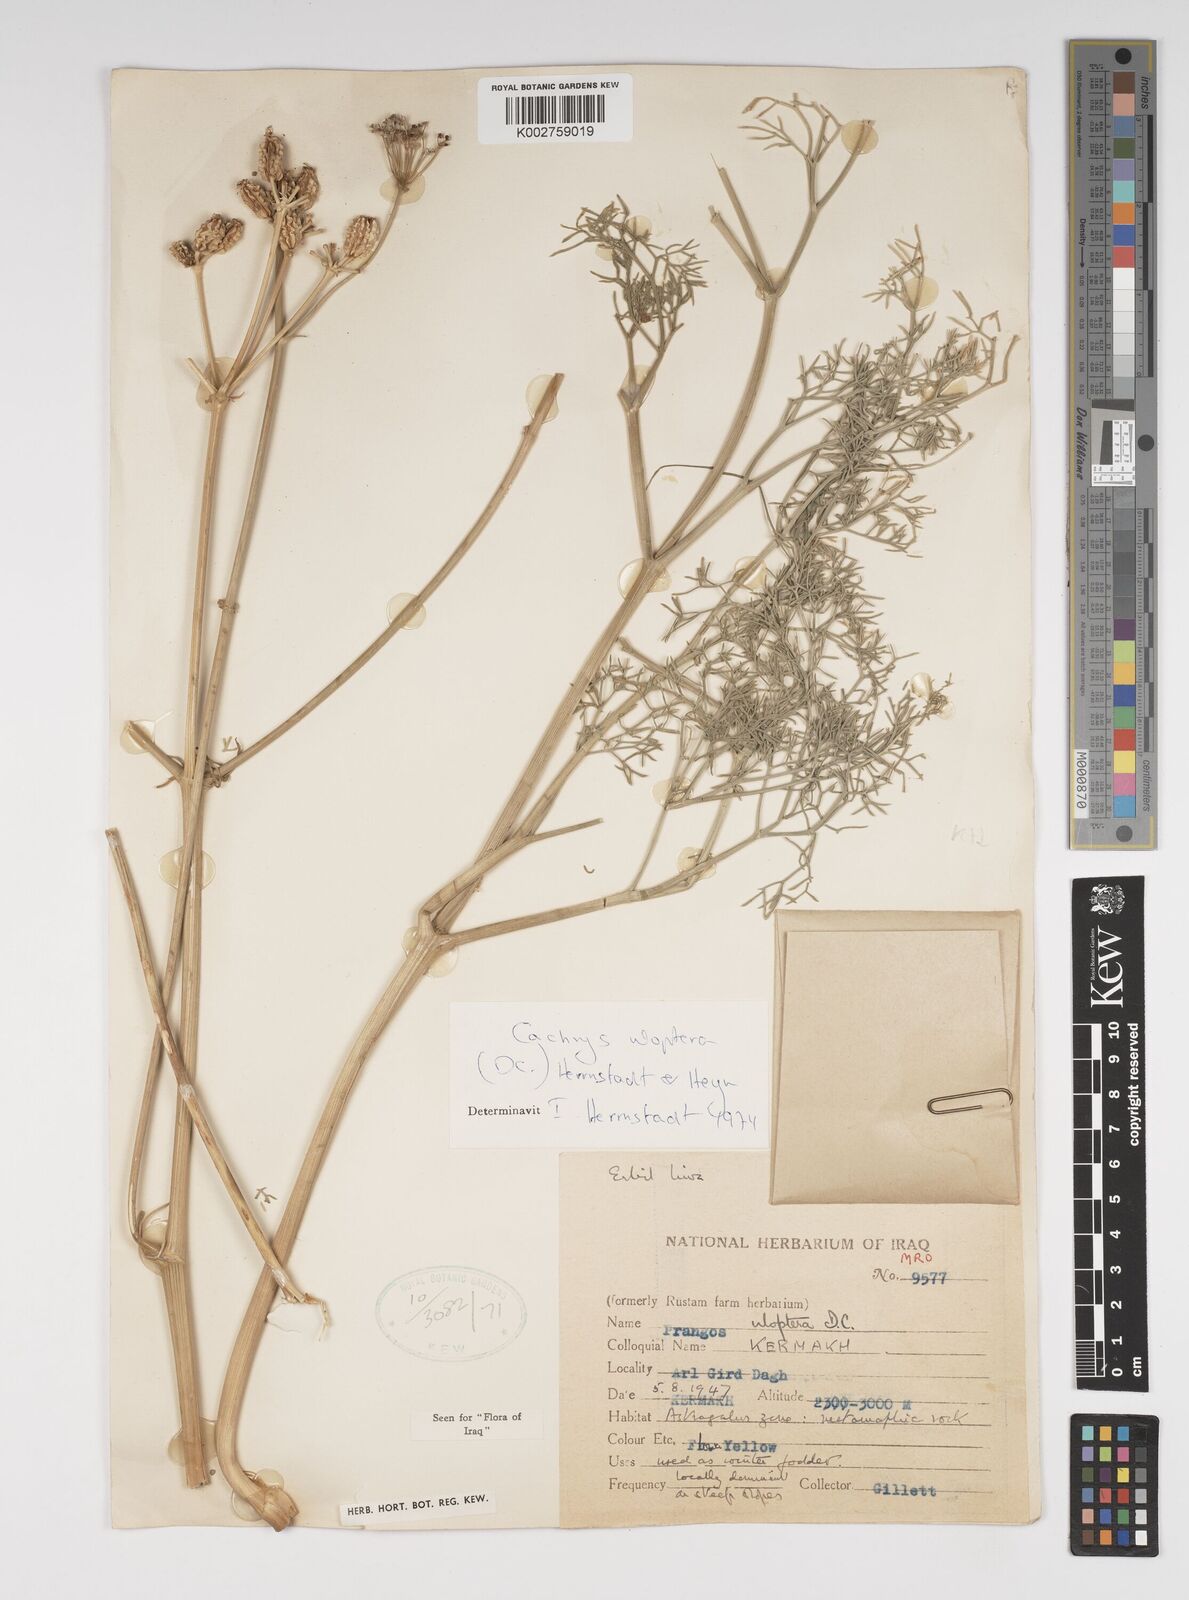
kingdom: Plantae
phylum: Tracheophyta
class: Magnoliopsida
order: Apiales
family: Apiaceae
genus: Prangos
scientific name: Prangos uloptera
